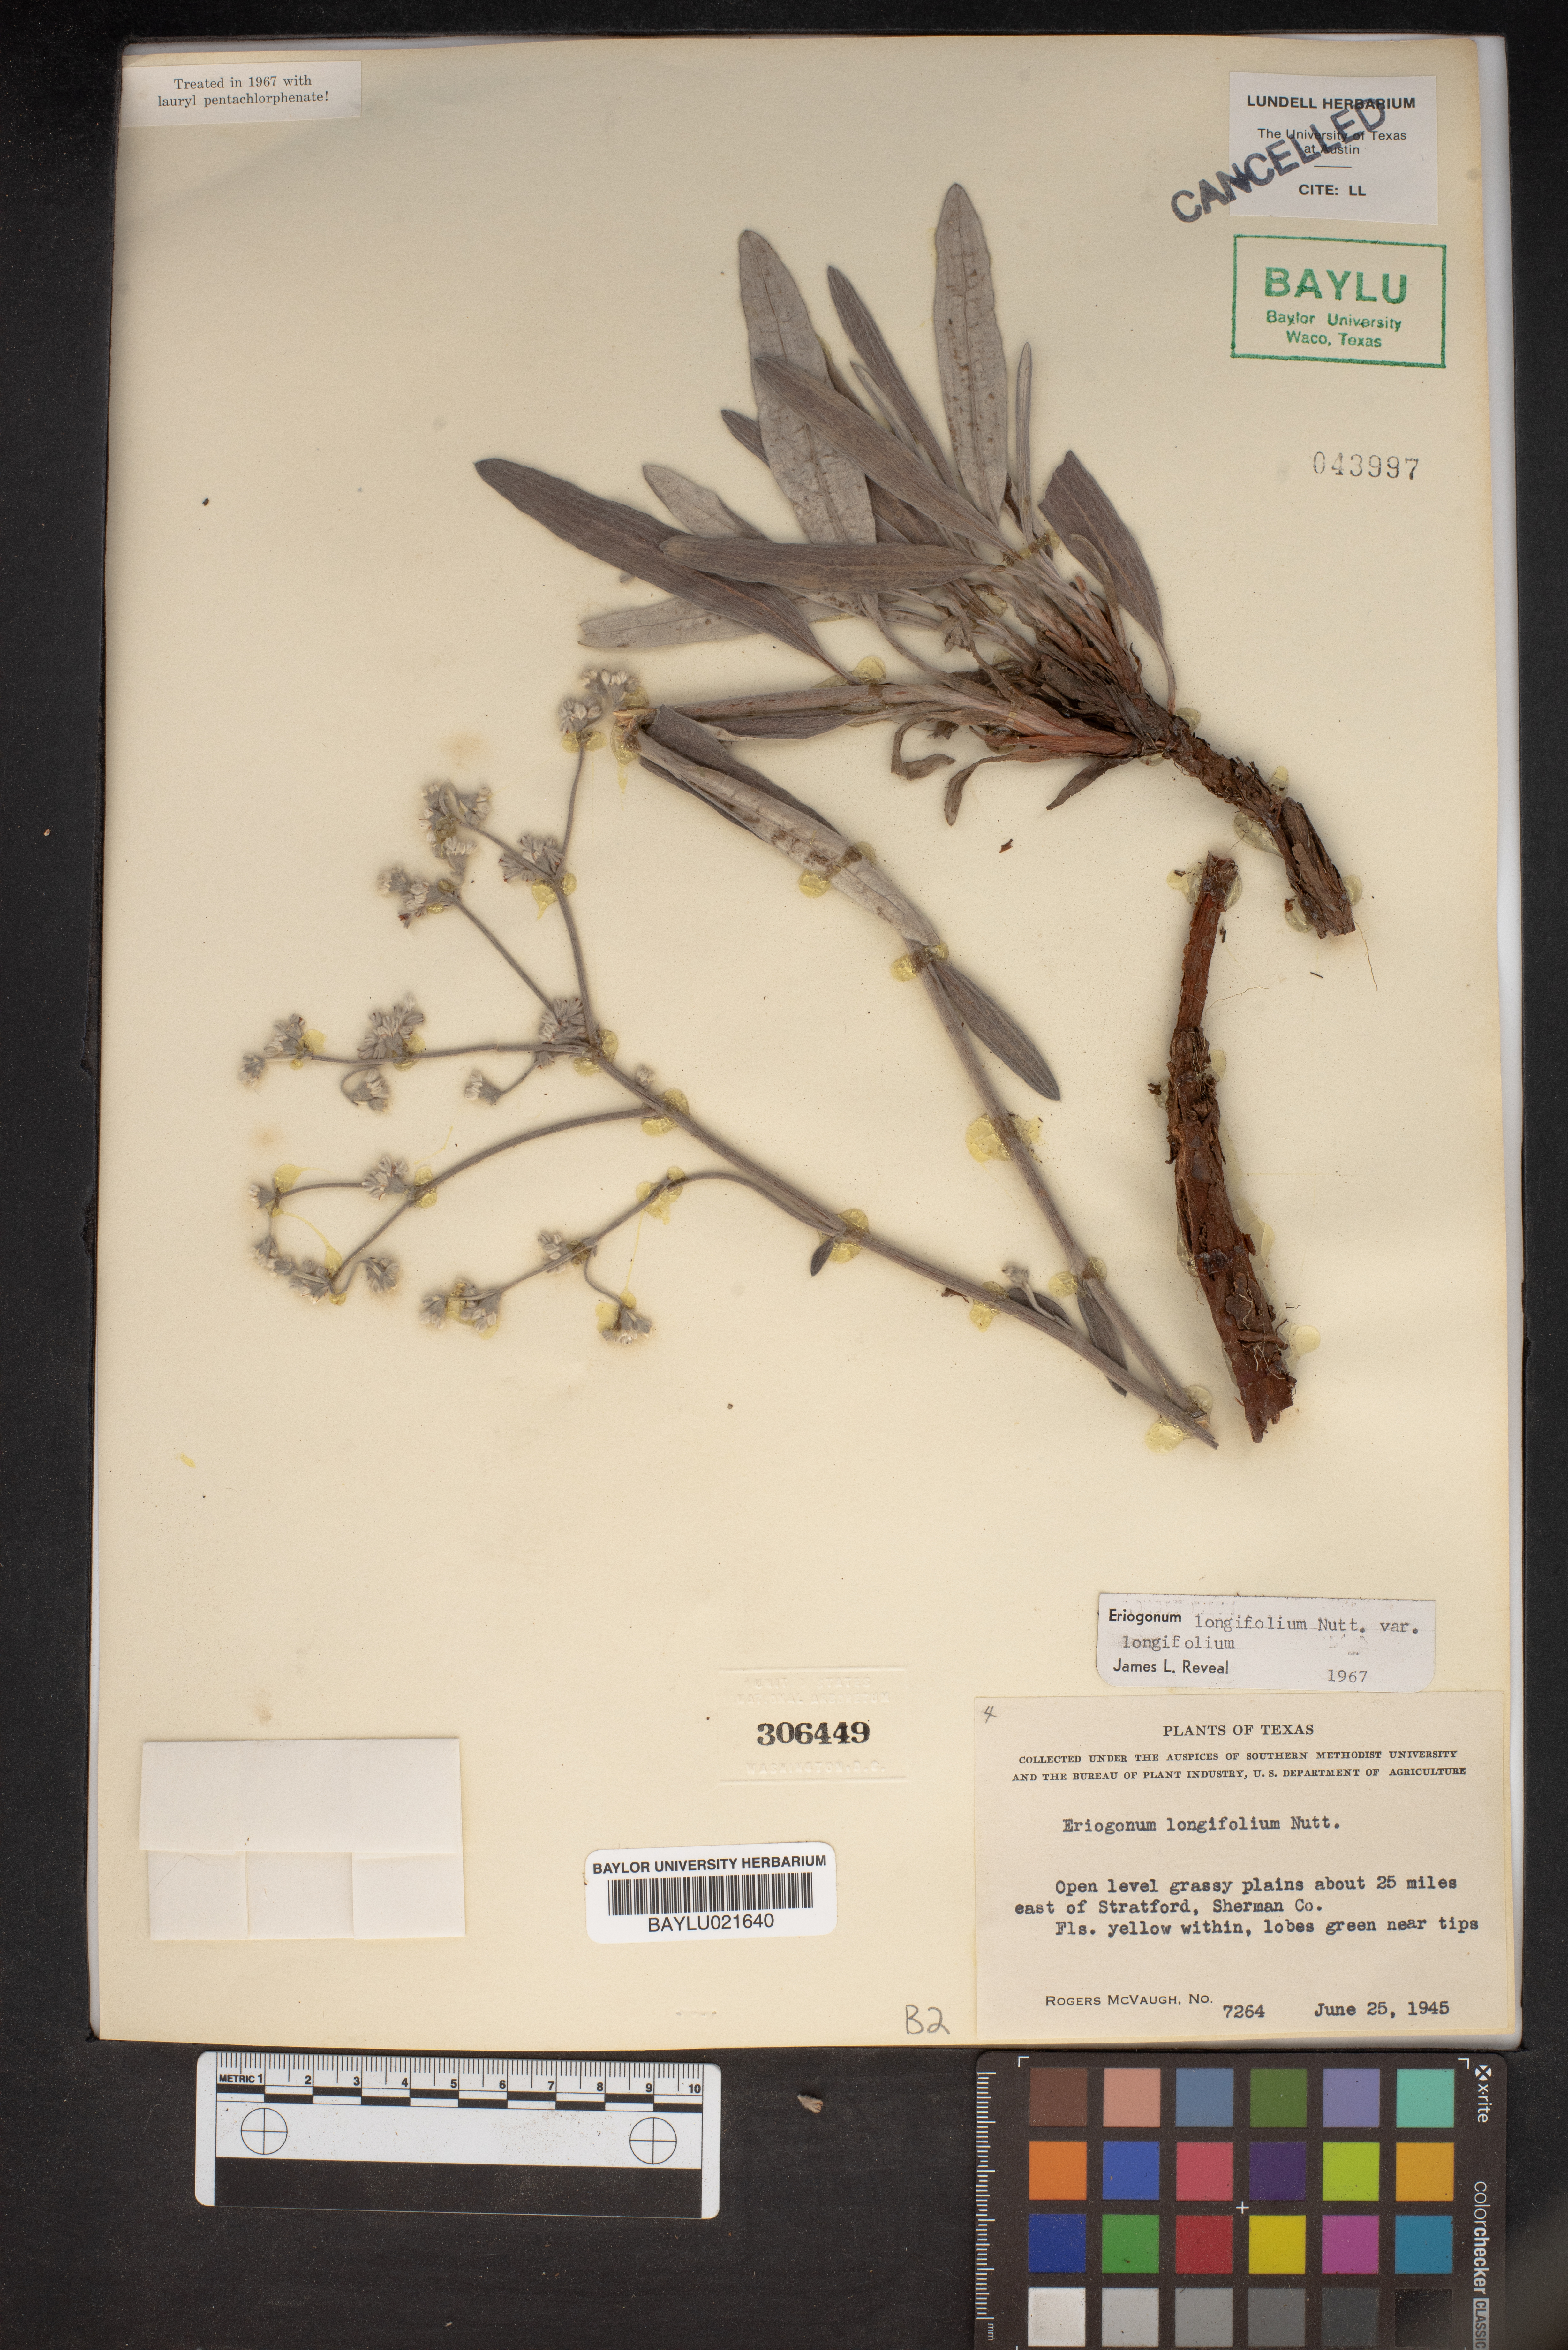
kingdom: Plantae
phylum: Tracheophyta
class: Magnoliopsida
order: Caryophyllales
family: Polygonaceae
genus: Eriogonum
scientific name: Eriogonum longifolium
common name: Longleaf wild buckwheat
